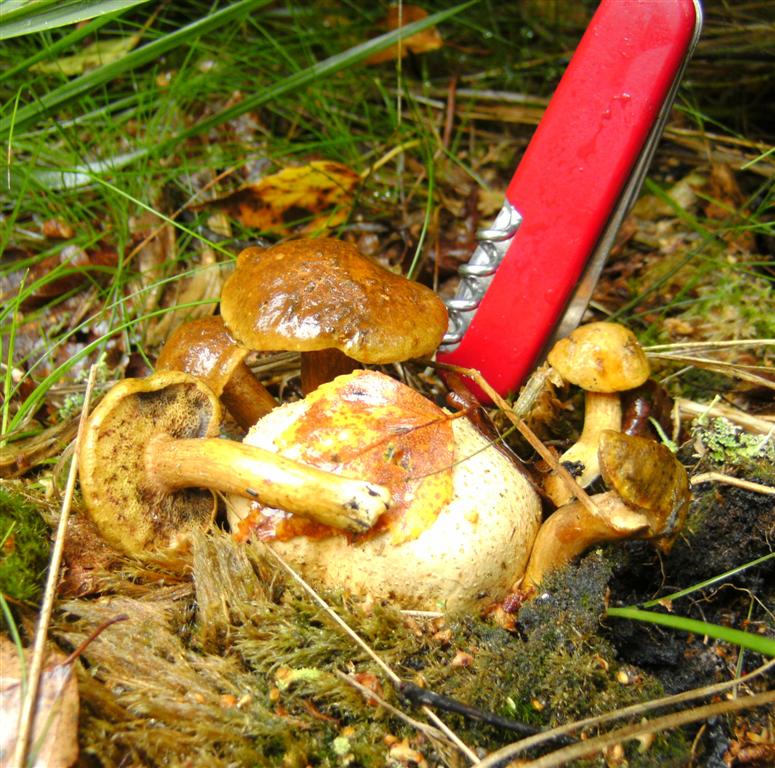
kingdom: Fungi
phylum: Basidiomycota
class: Agaricomycetes
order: Boletales
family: Boletaceae
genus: Pseudoboletus
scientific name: Pseudoboletus parasiticus
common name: snyltende rørhat
